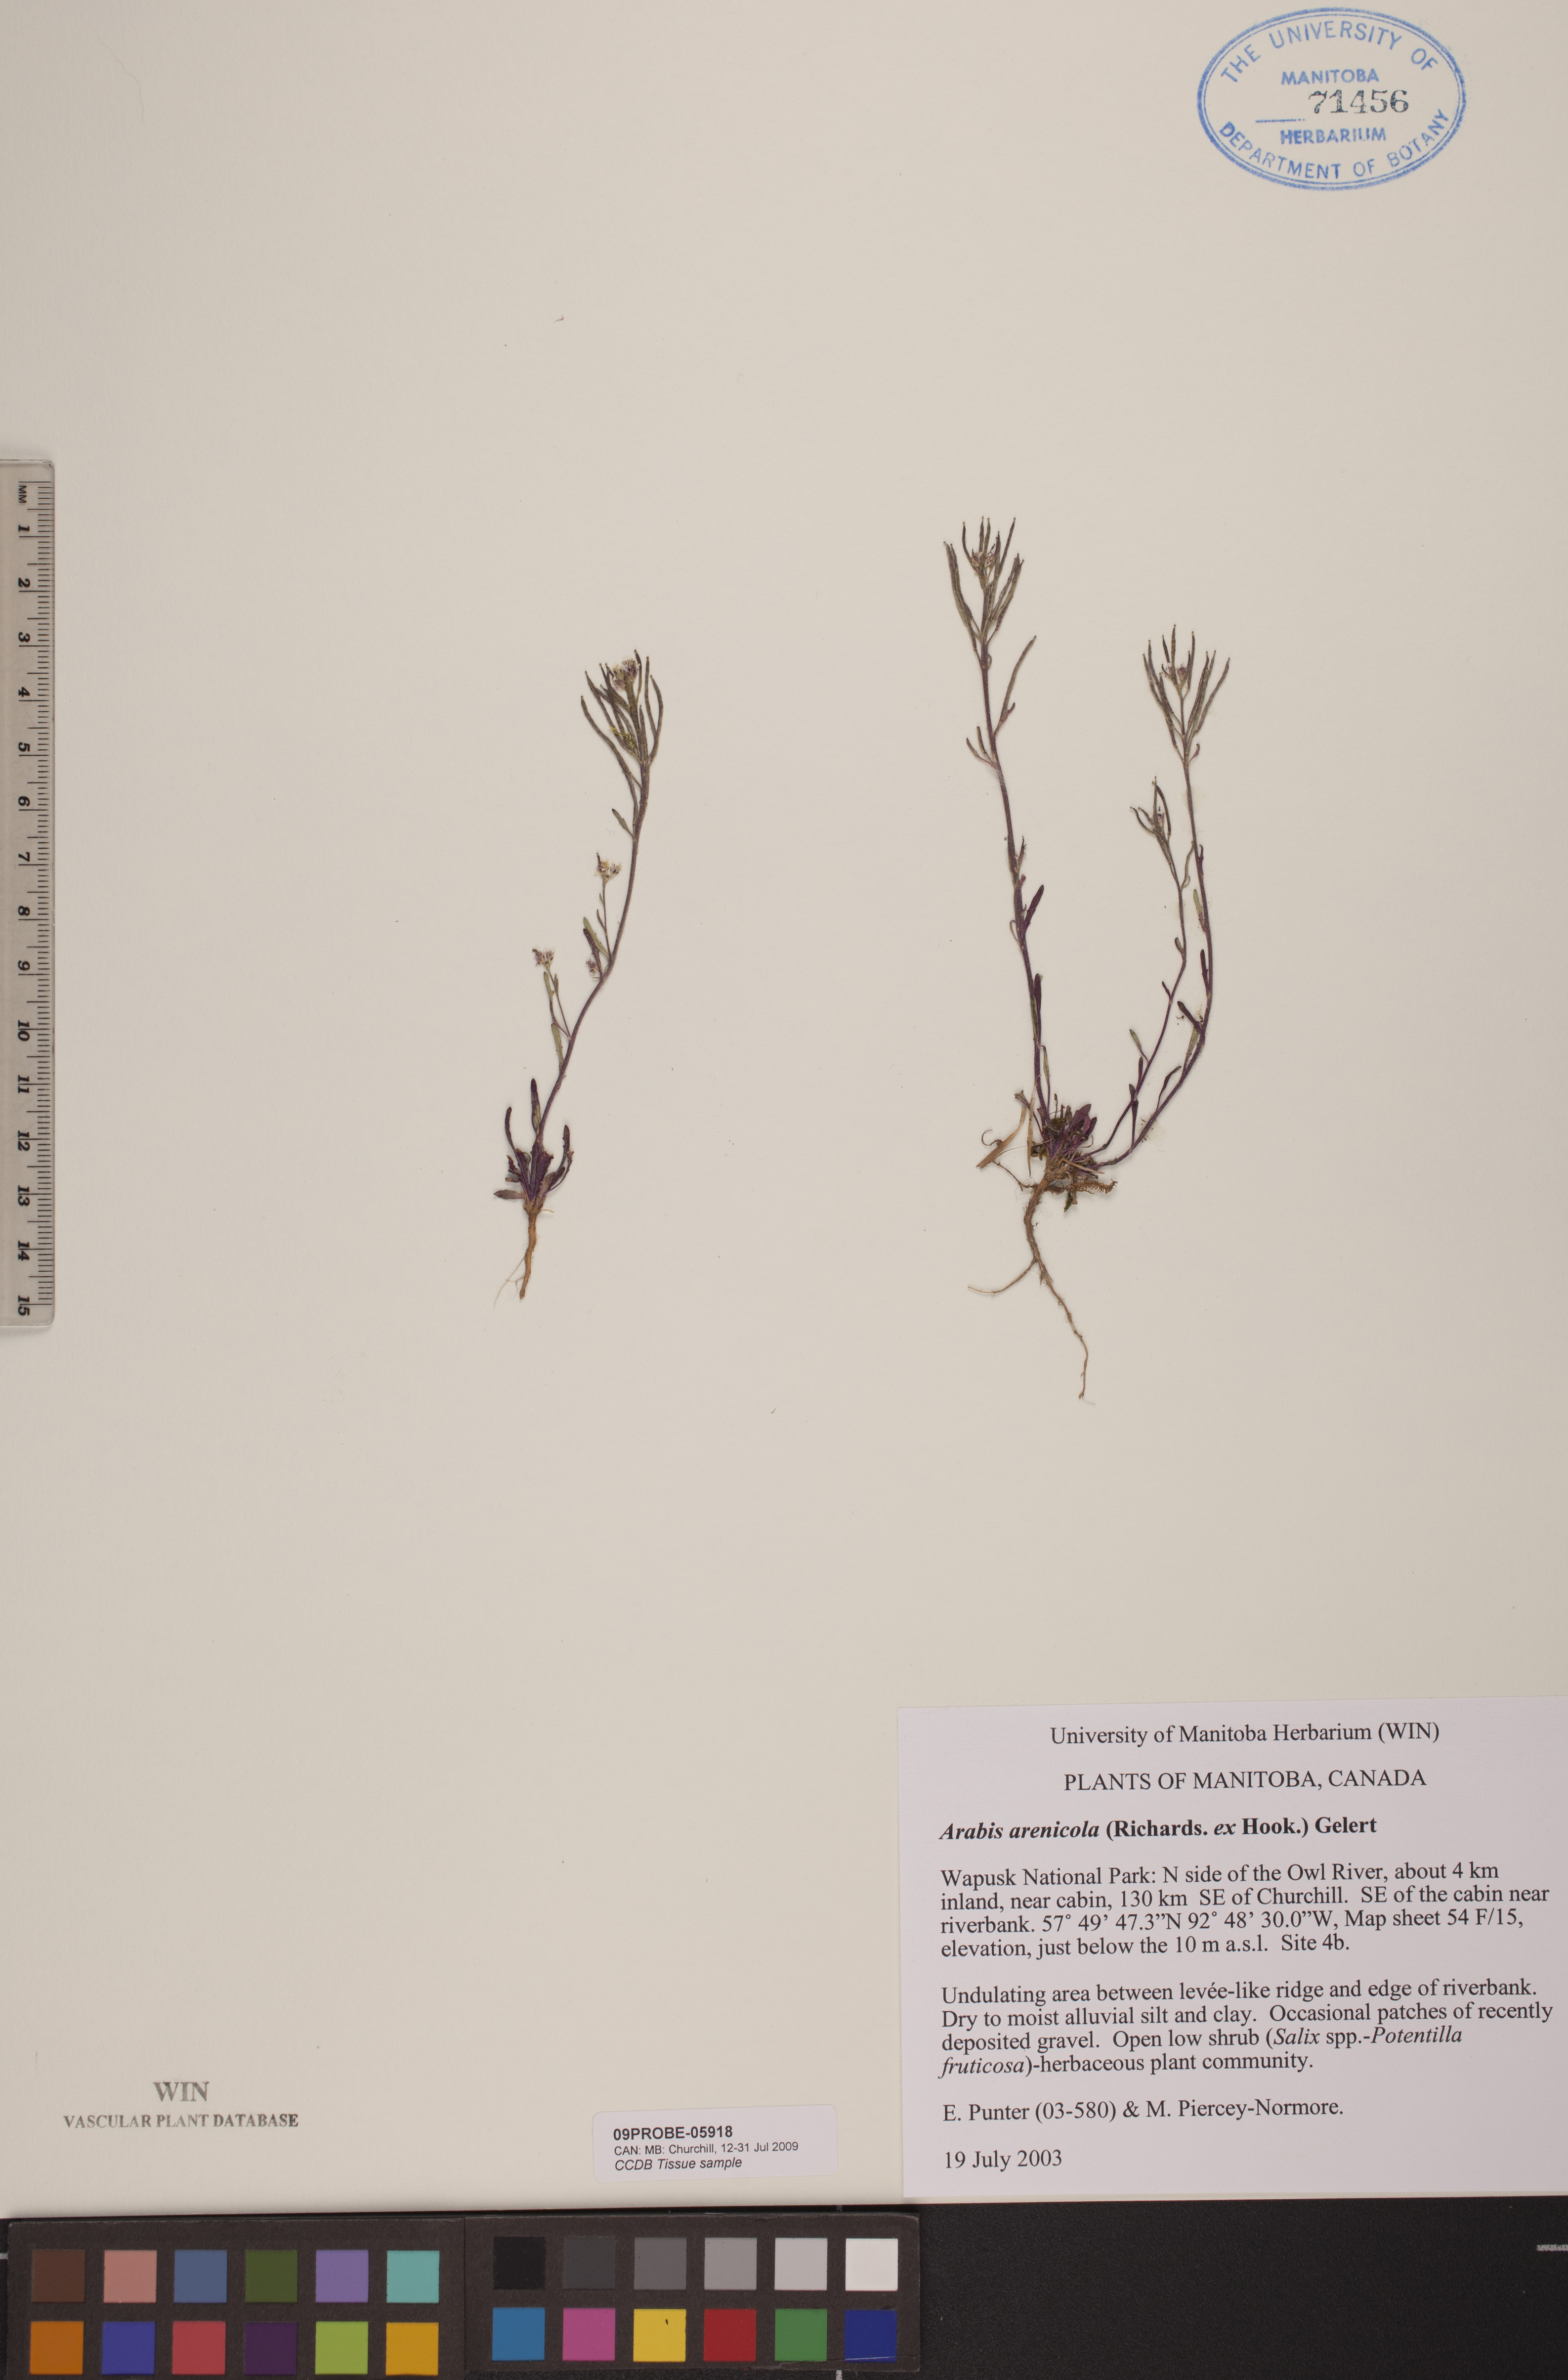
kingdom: Plantae
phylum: Tracheophyta
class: Magnoliopsida
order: Brassicales
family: Brassicaceae
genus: Arabidopsis
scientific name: Arabidopsis arenicola
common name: Arctic rockcress
